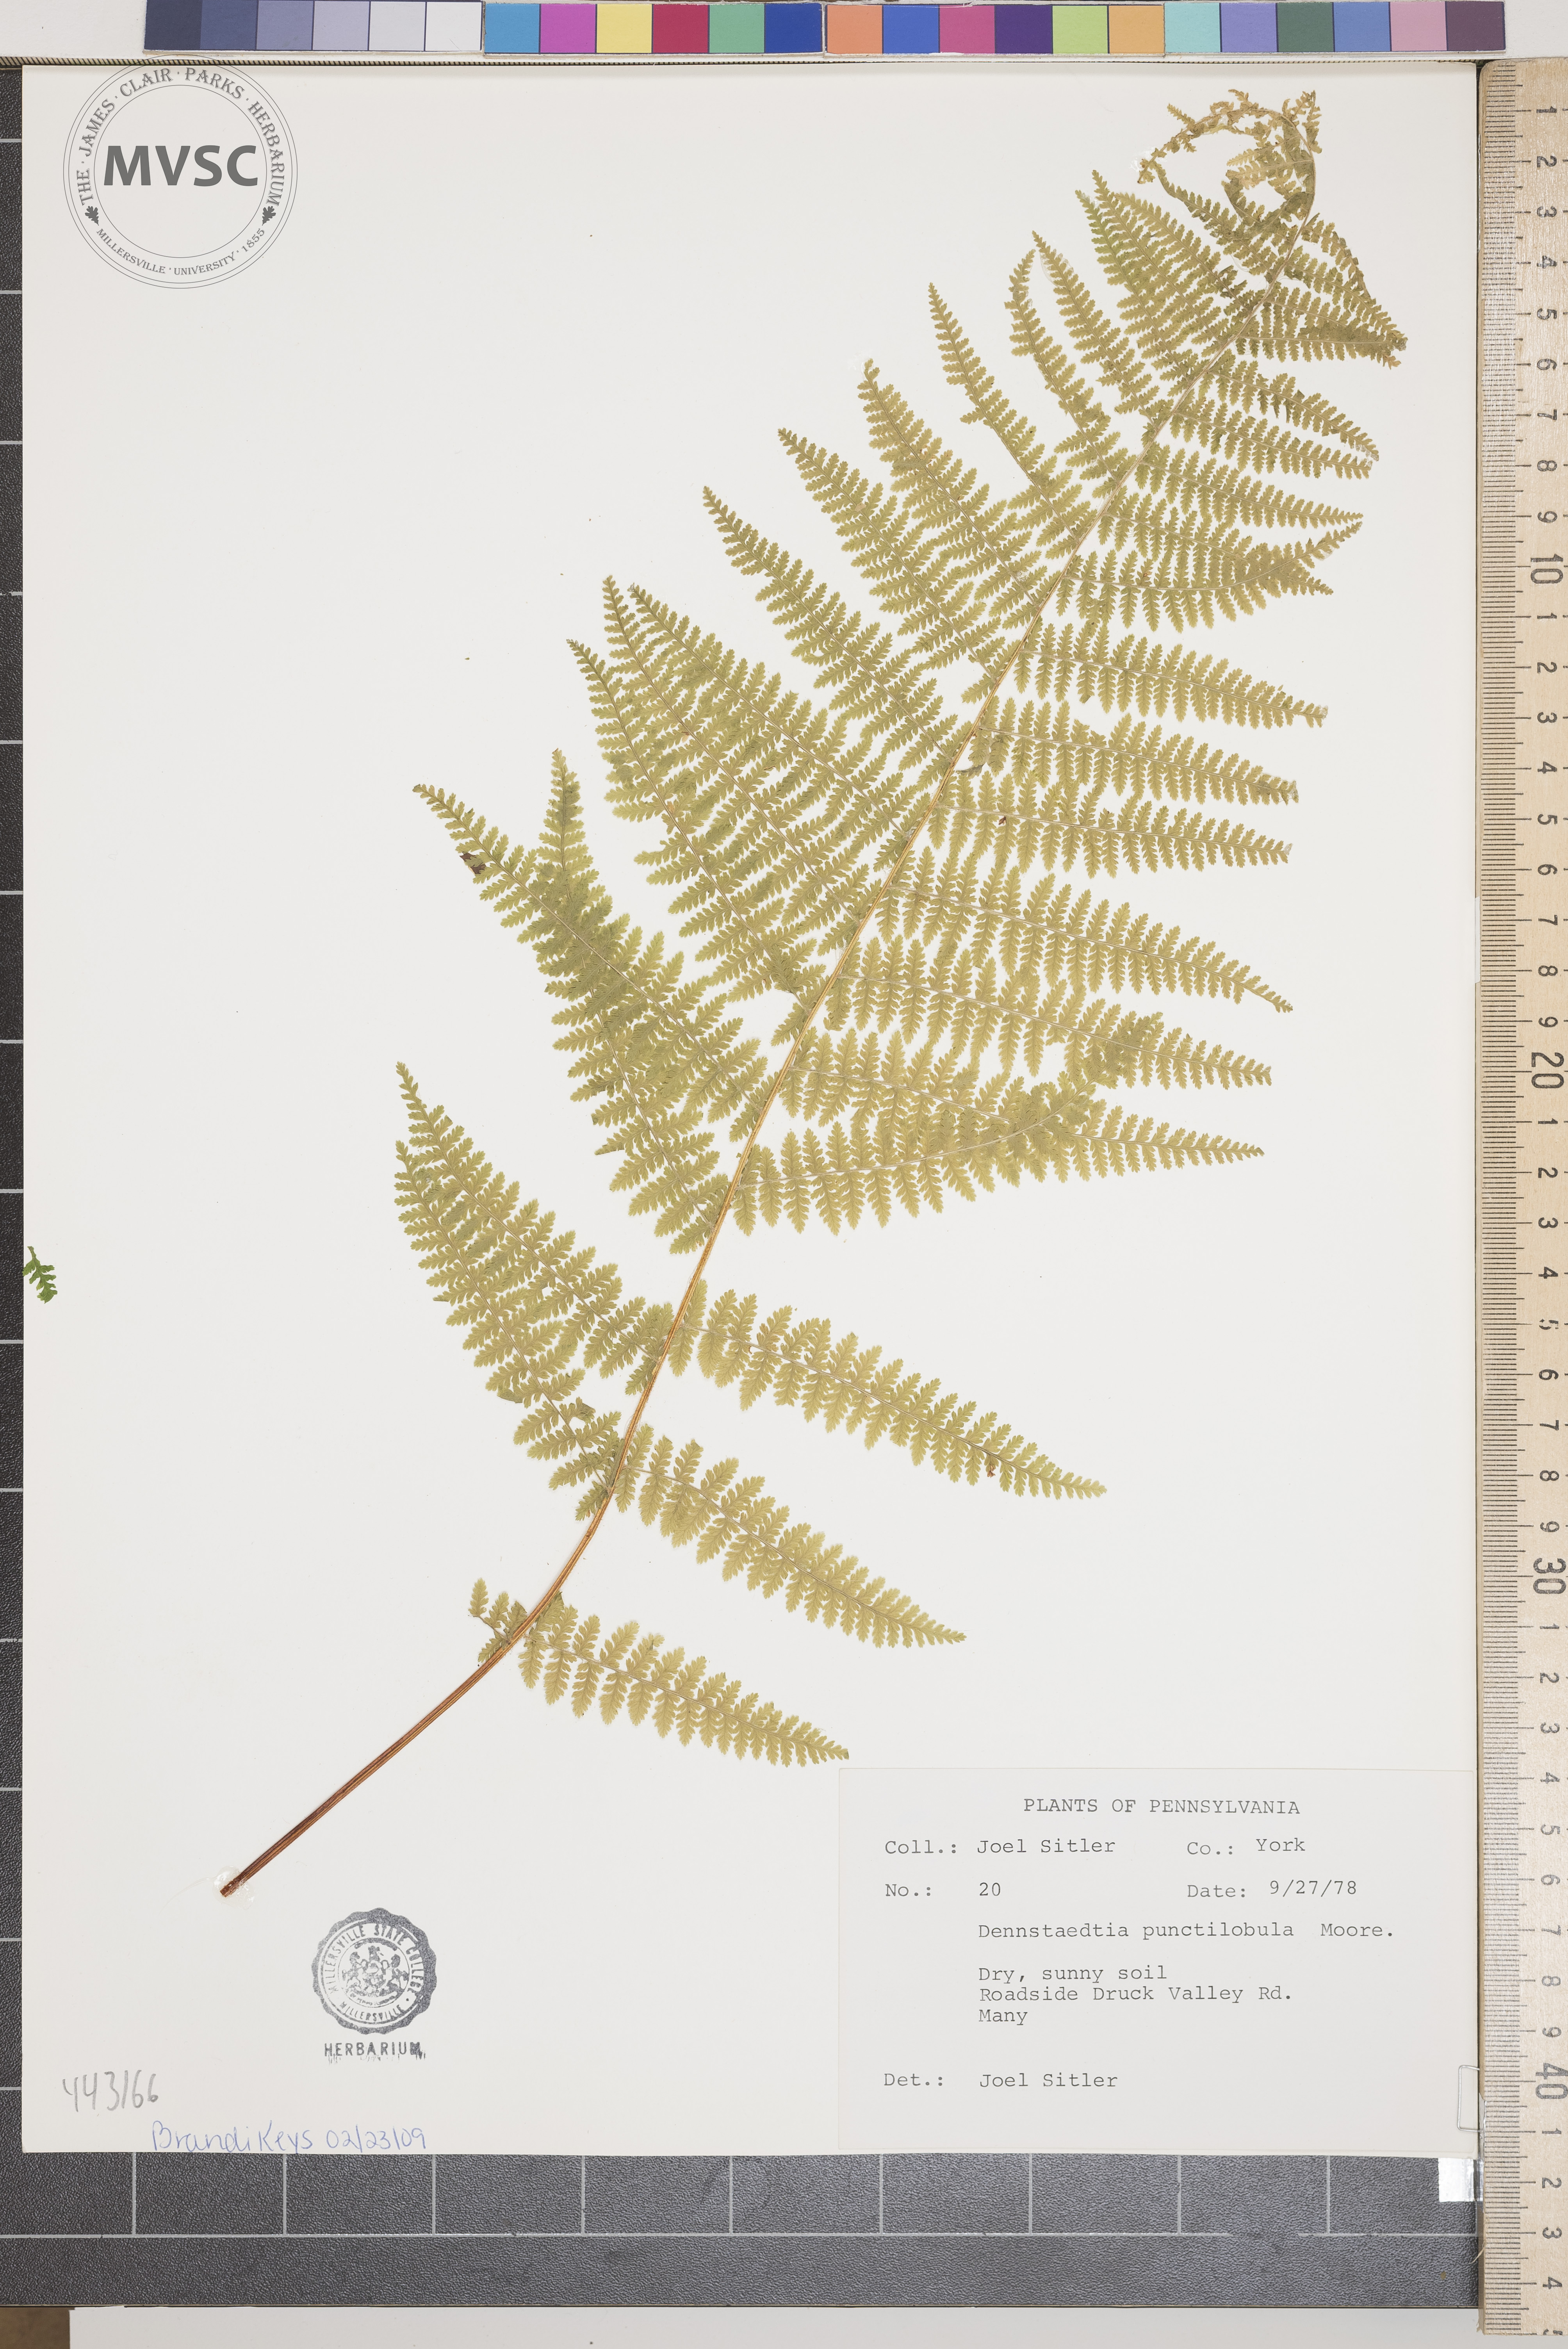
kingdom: Plantae
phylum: Tracheophyta
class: Polypodiopsida
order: Polypodiales
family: Dennstaedtiaceae
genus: Sitobolium
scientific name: Sitobolium punctilobum
